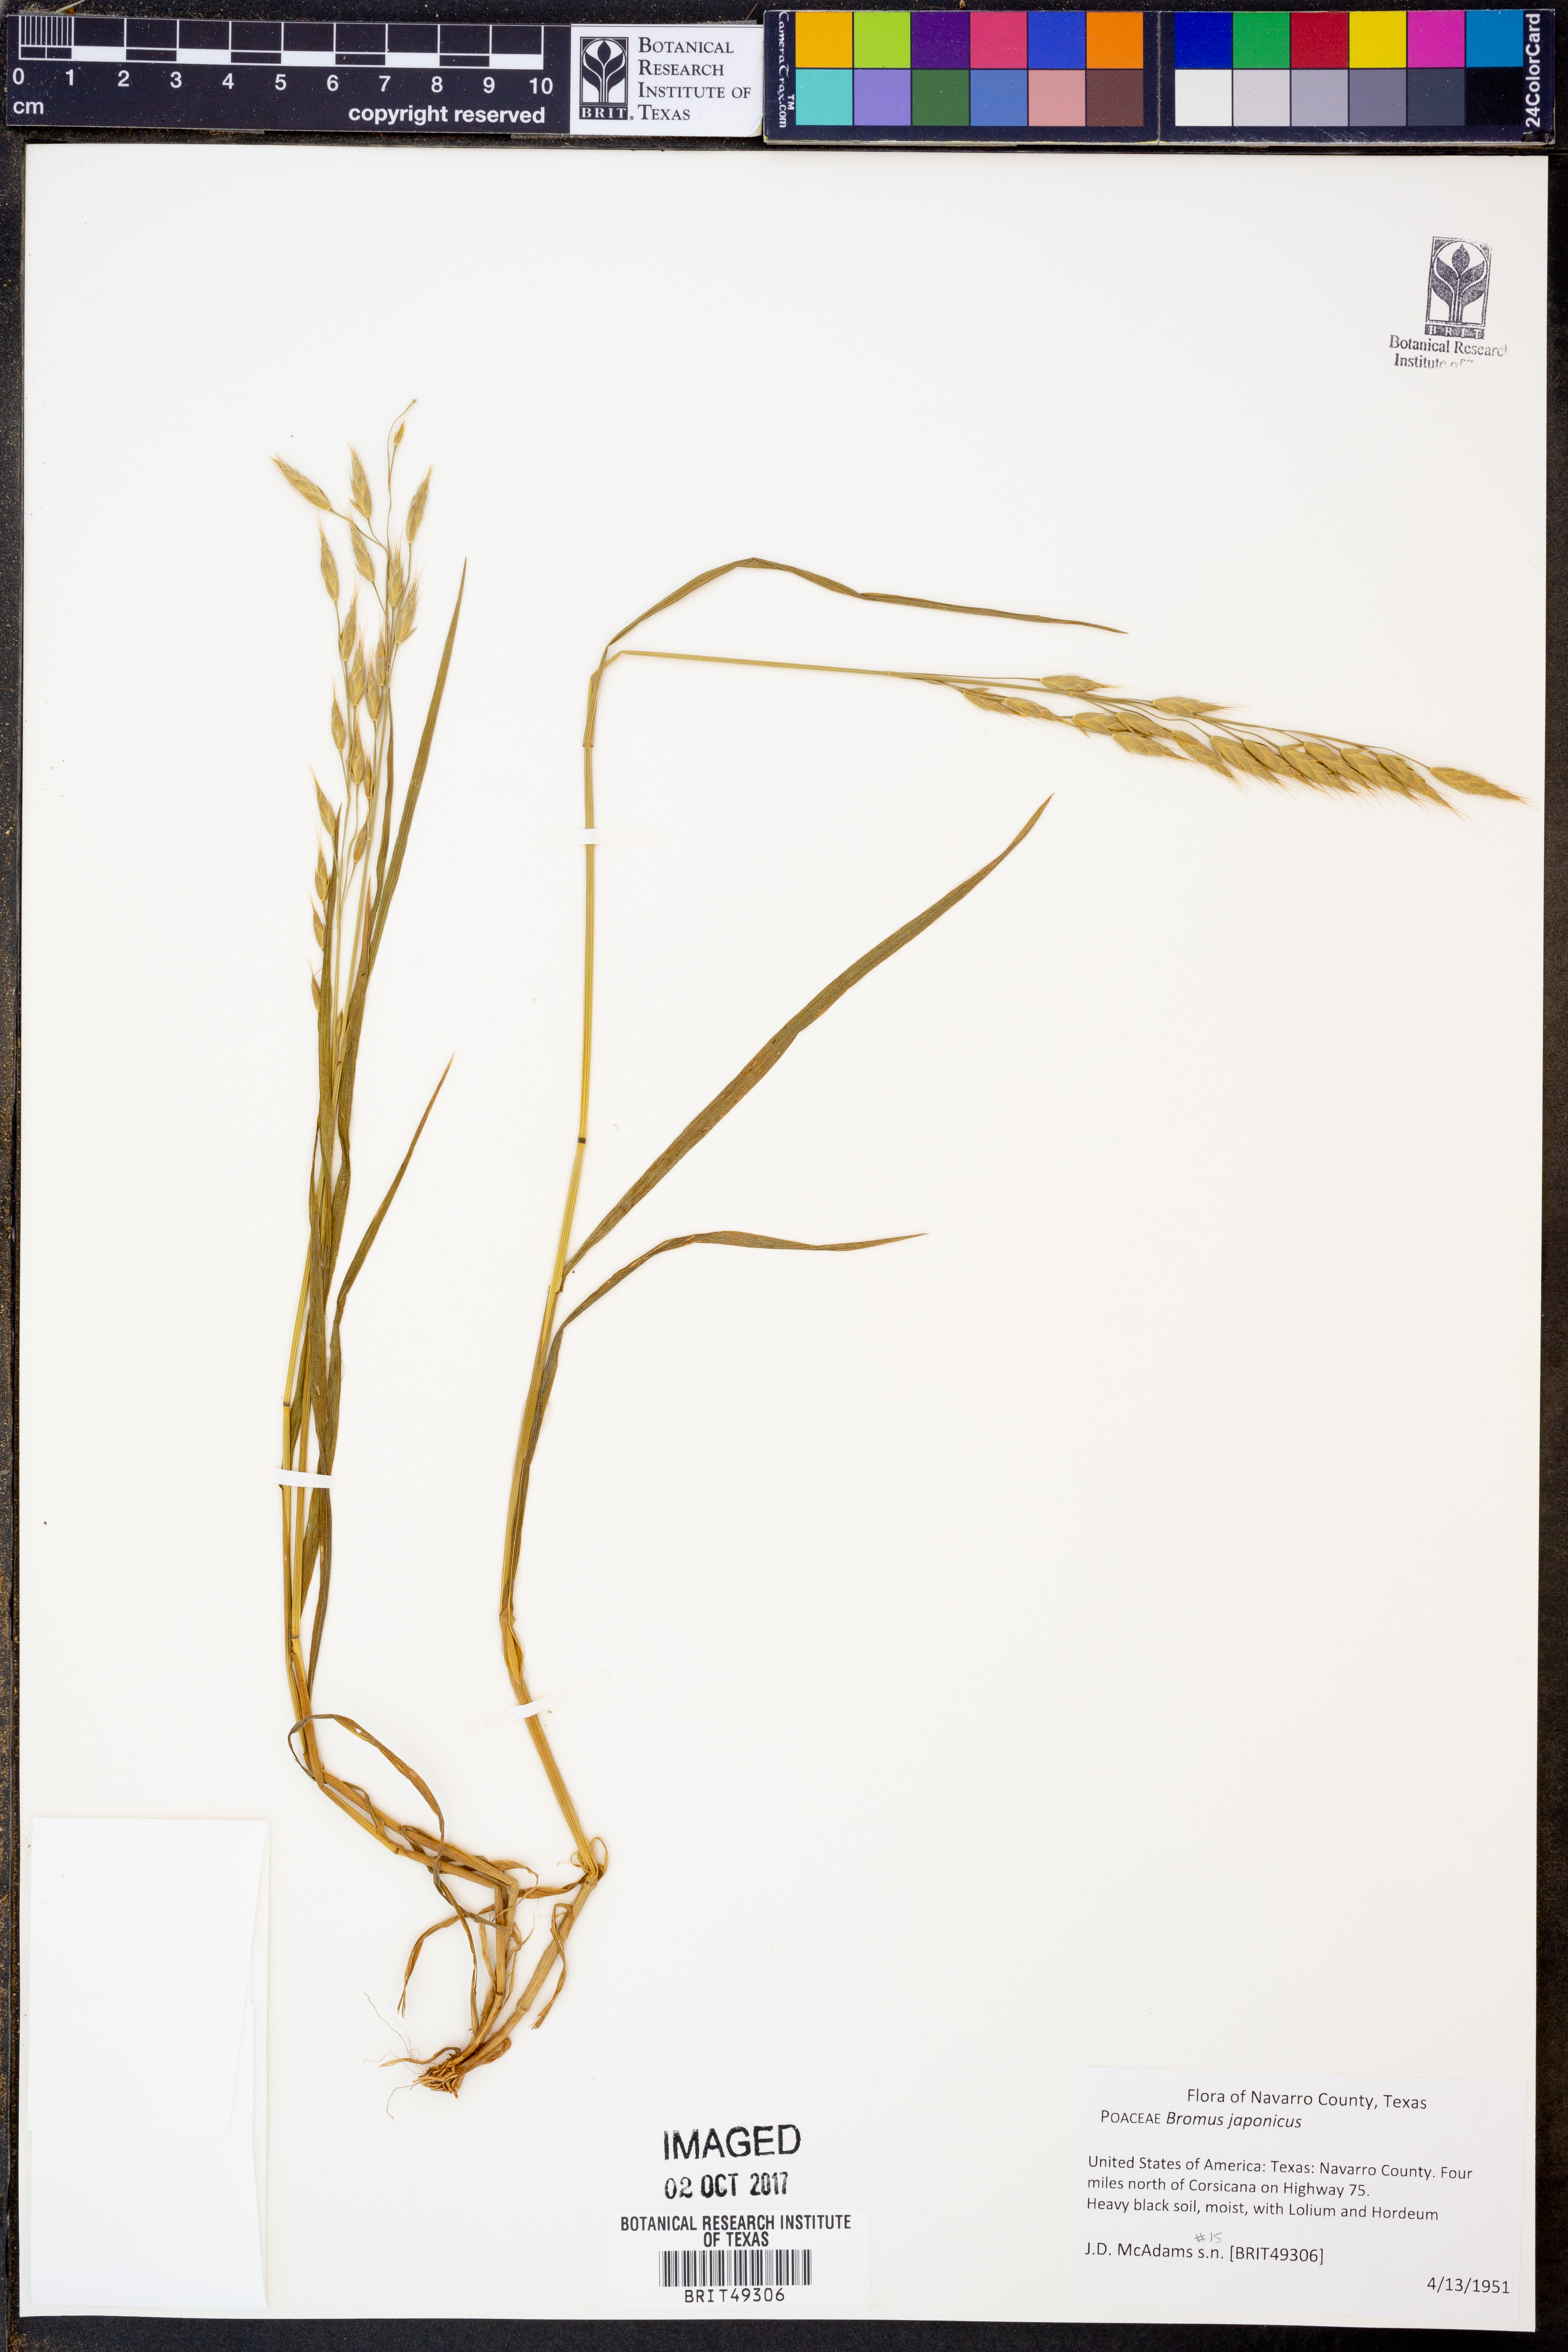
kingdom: Plantae
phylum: Tracheophyta
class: Liliopsida
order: Poales
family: Poaceae
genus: Bromus
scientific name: Bromus japonicus
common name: Japanese brome
